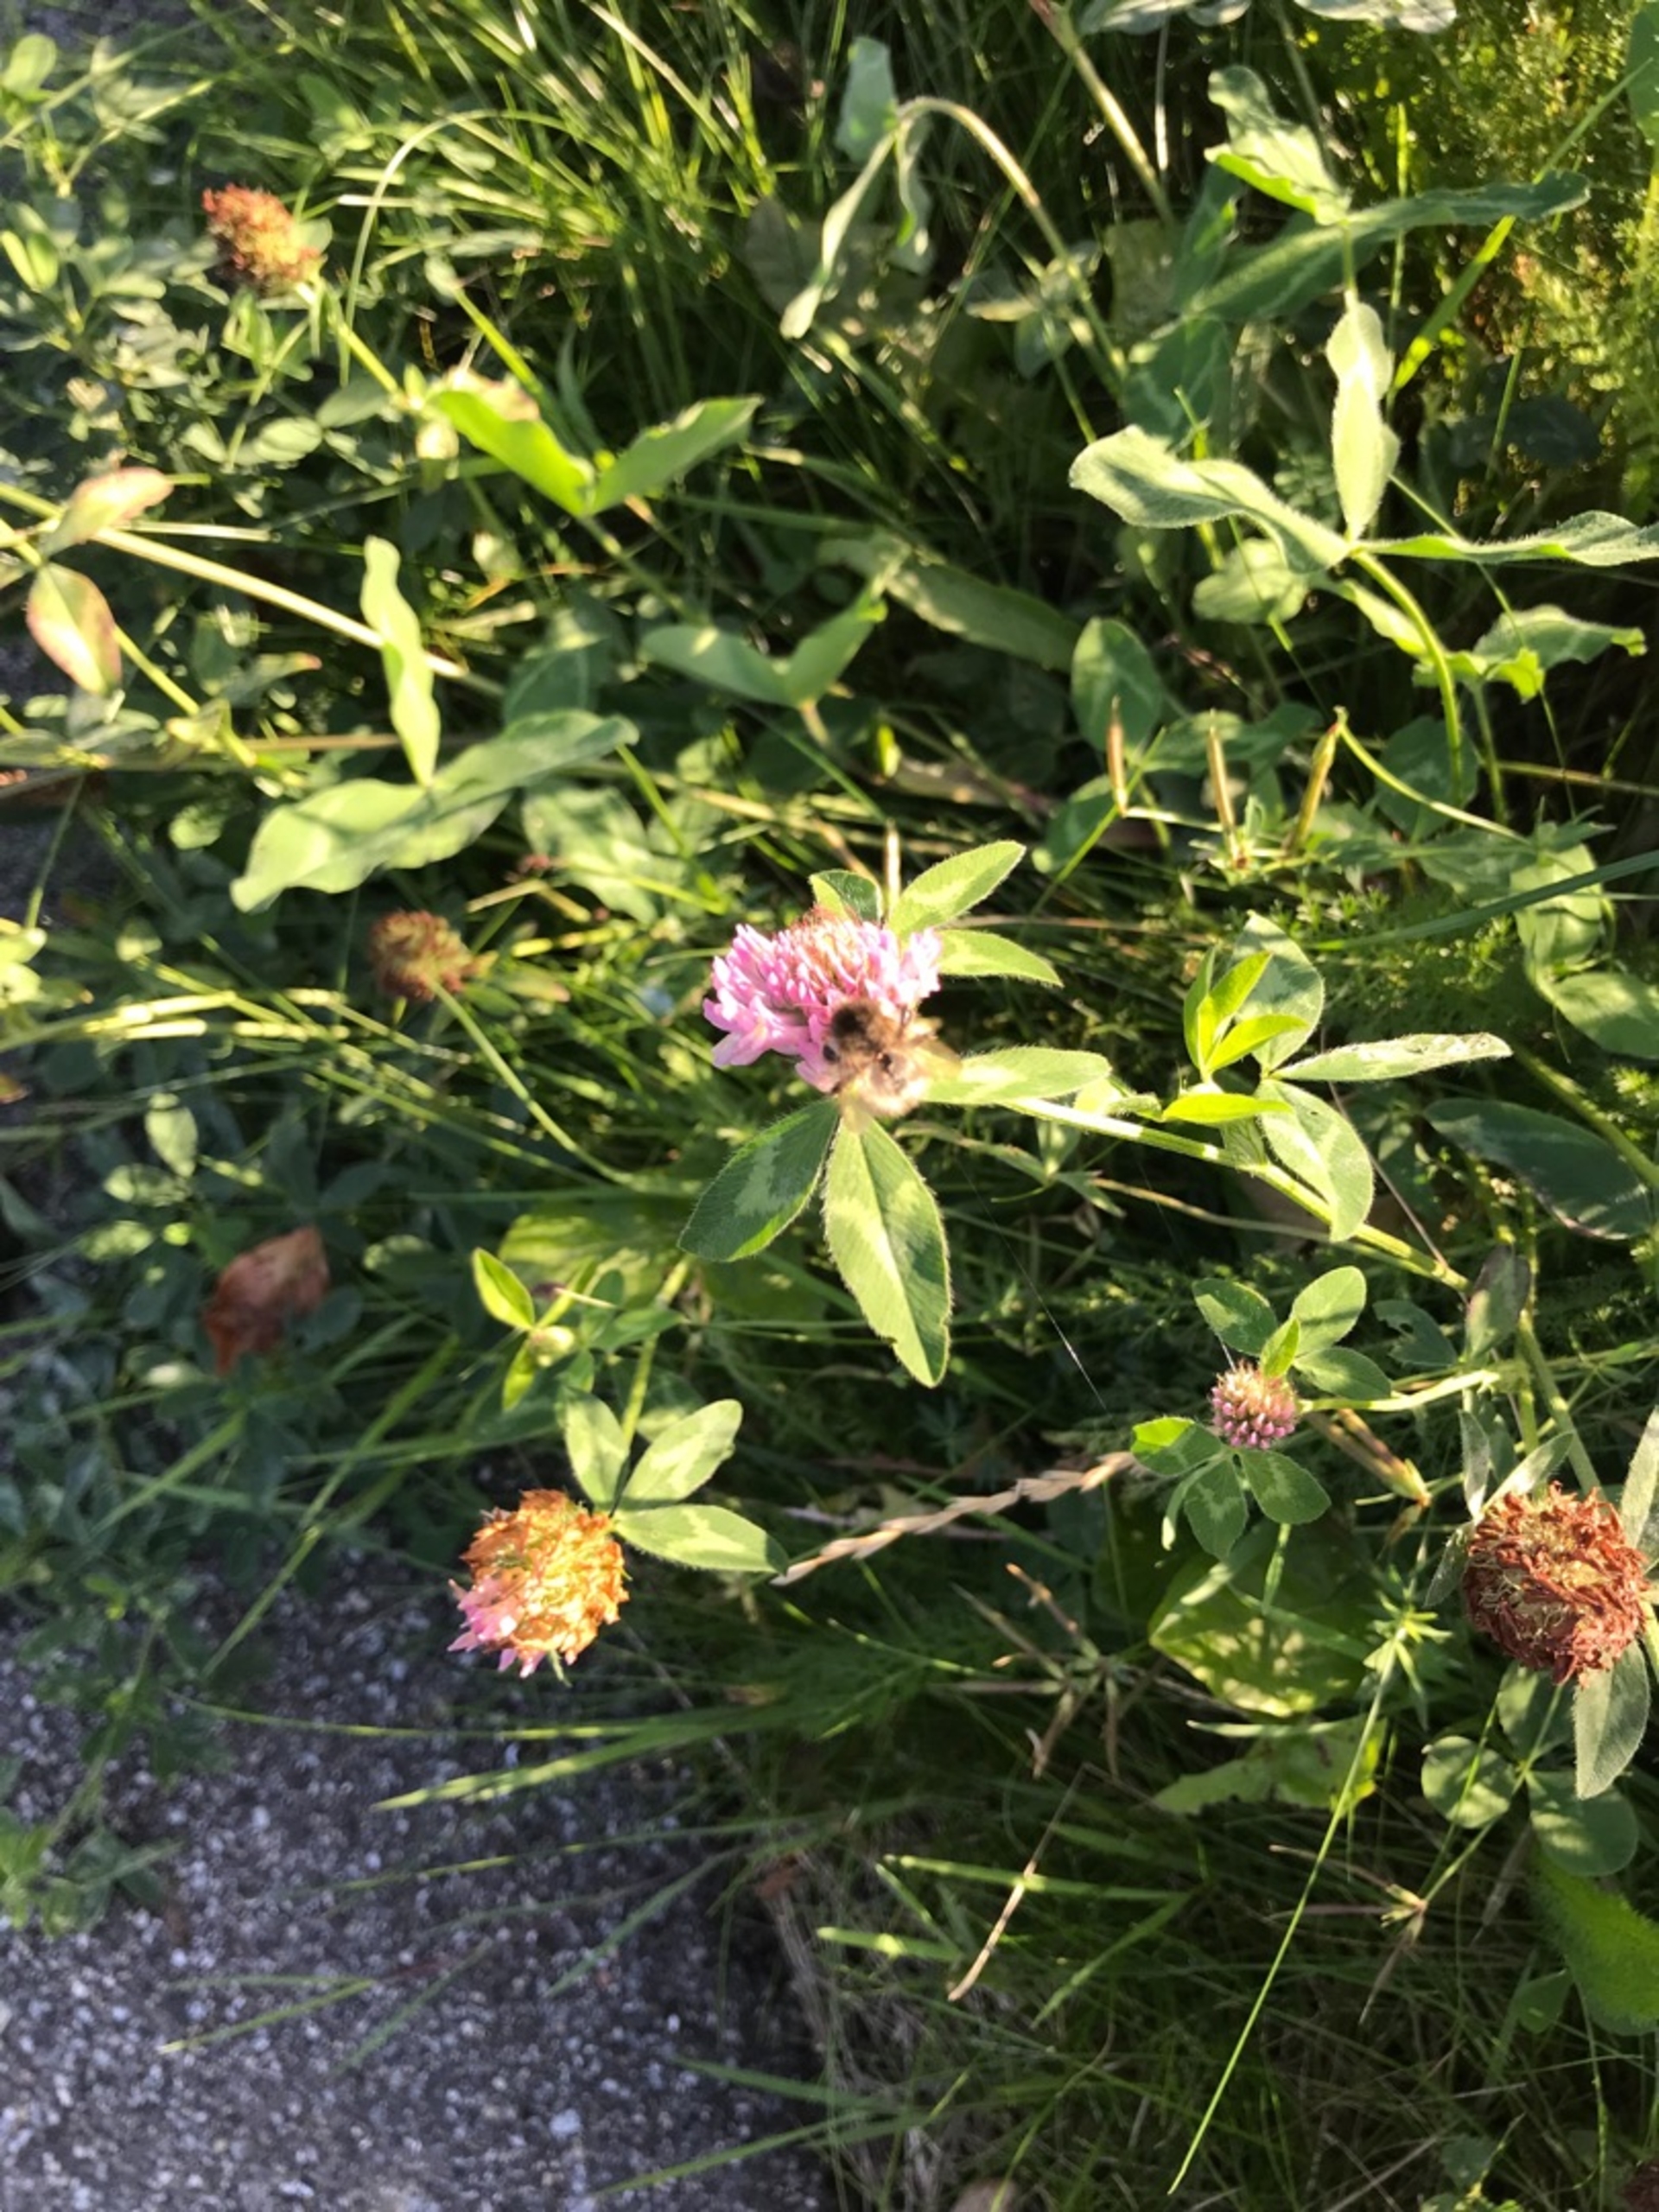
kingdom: Plantae
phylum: Tracheophyta
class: Magnoliopsida
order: Fabales
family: Fabaceae
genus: Trifolium
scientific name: Trifolium pratense
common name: Rød-kløver
